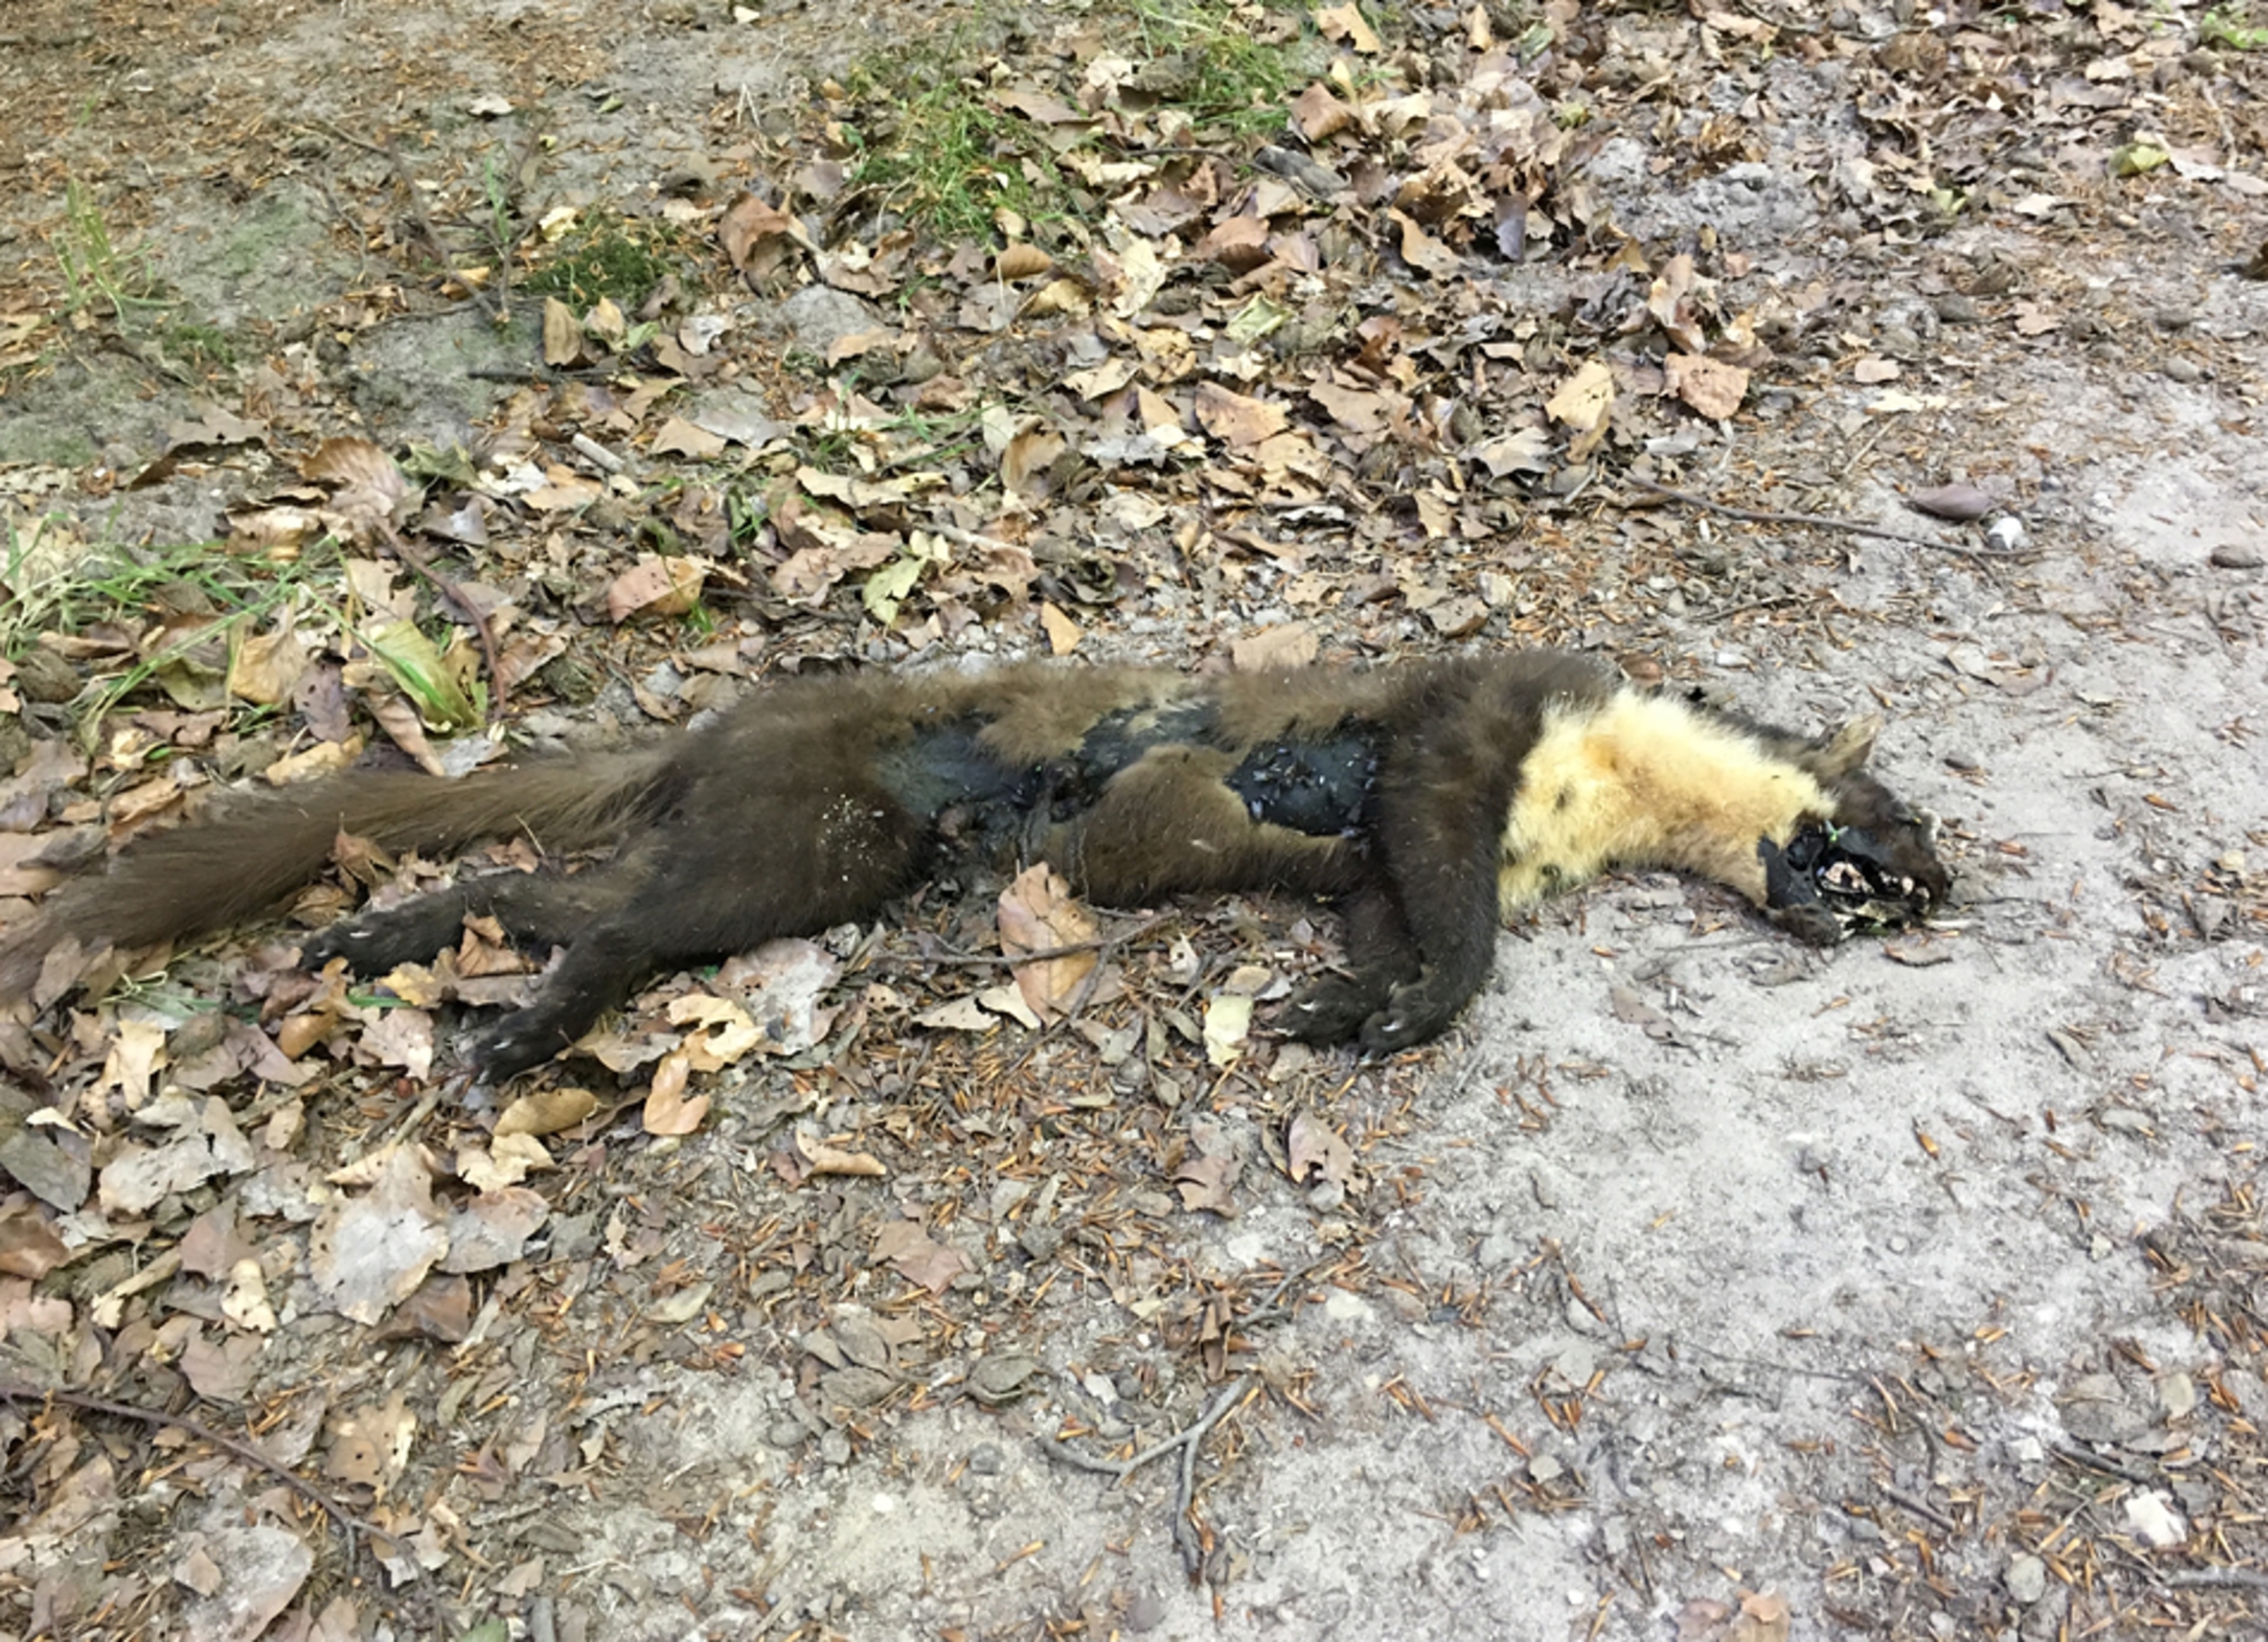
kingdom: Animalia
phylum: Chordata
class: Mammalia
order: Carnivora
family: Mustelidae
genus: Martes
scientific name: Martes martes
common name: Skovmår
